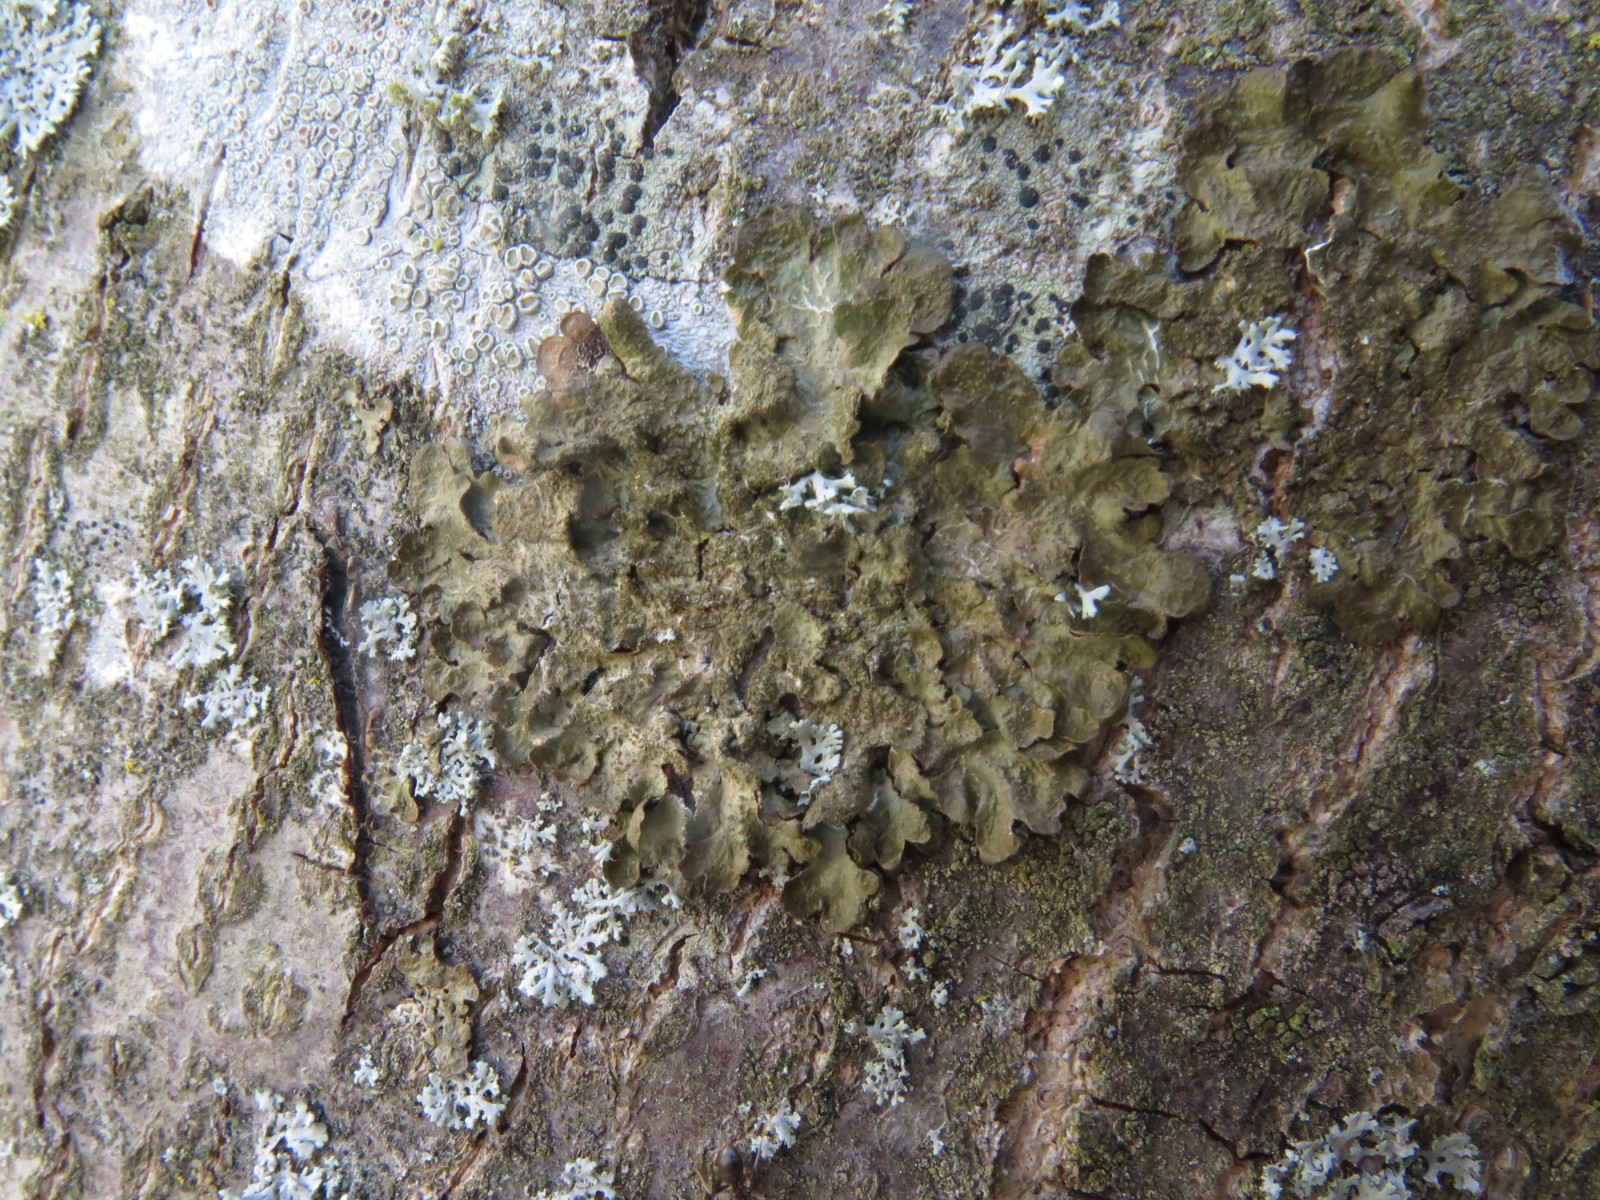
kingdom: Fungi
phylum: Ascomycota
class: Lecanoromycetes
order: Lecanorales
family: Parmeliaceae
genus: Melanelixia
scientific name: Melanelixia subaurifera
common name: guldpudret skållav
